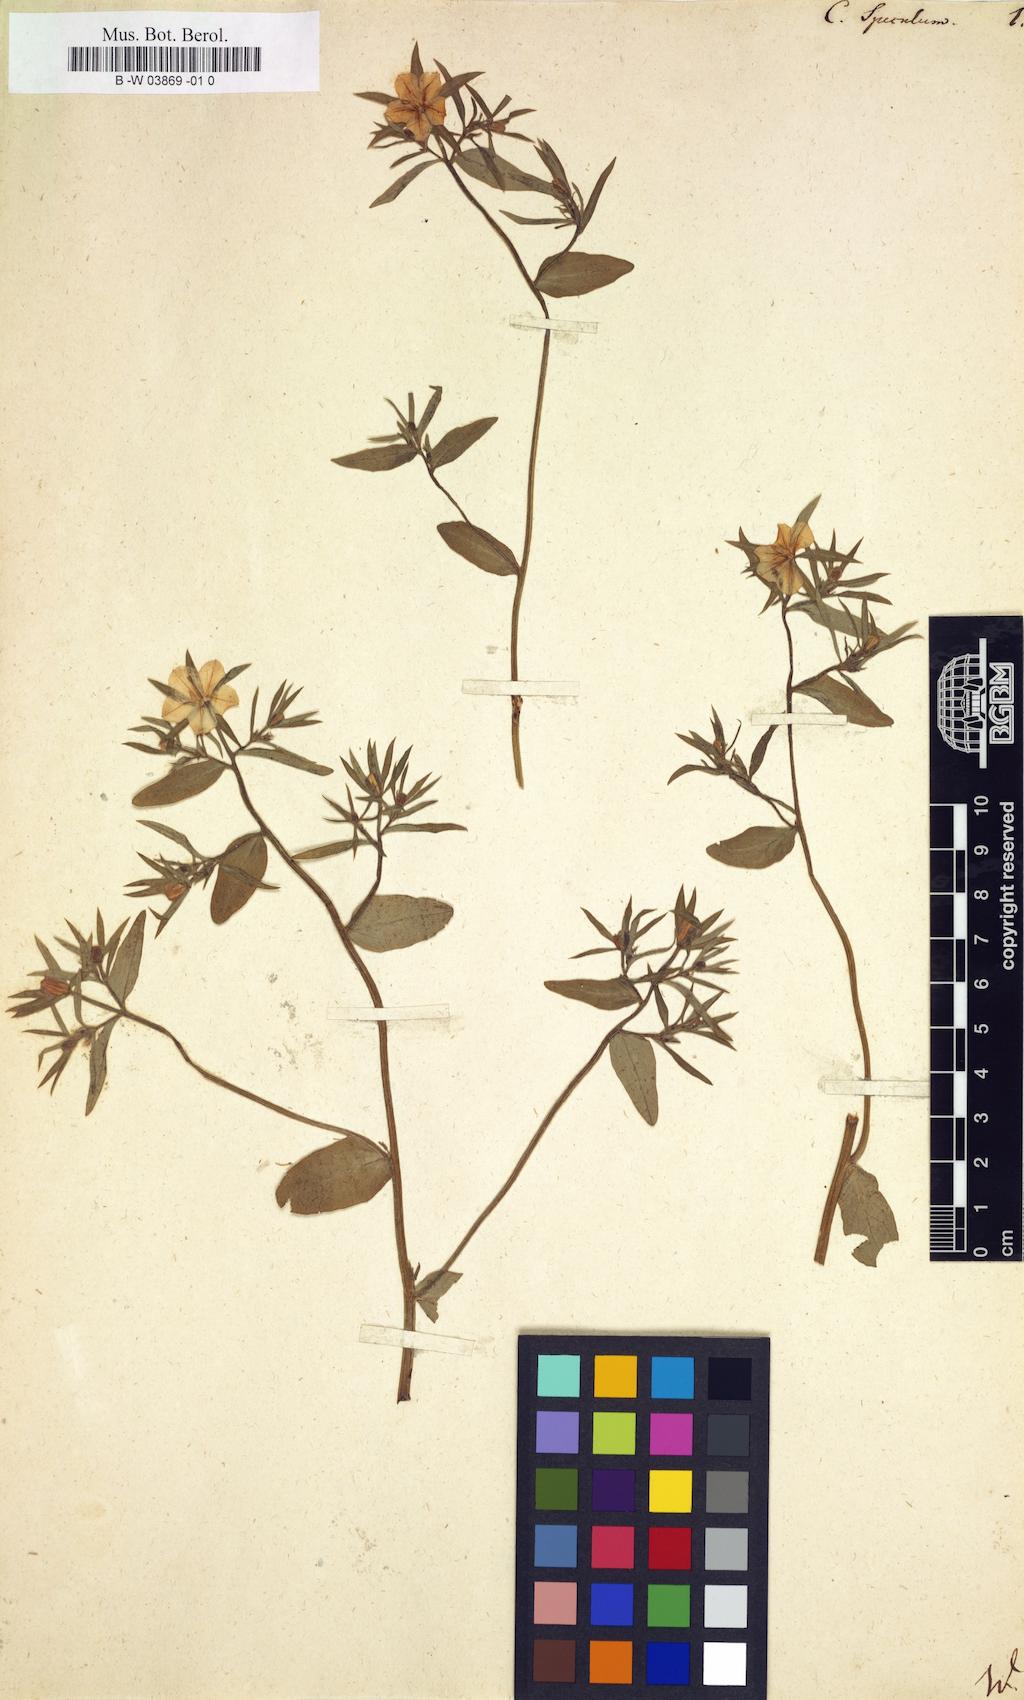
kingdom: Plantae
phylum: Tracheophyta
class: Magnoliopsida
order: Asterales
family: Campanulaceae
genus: Campanula
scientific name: Campanula speculum
